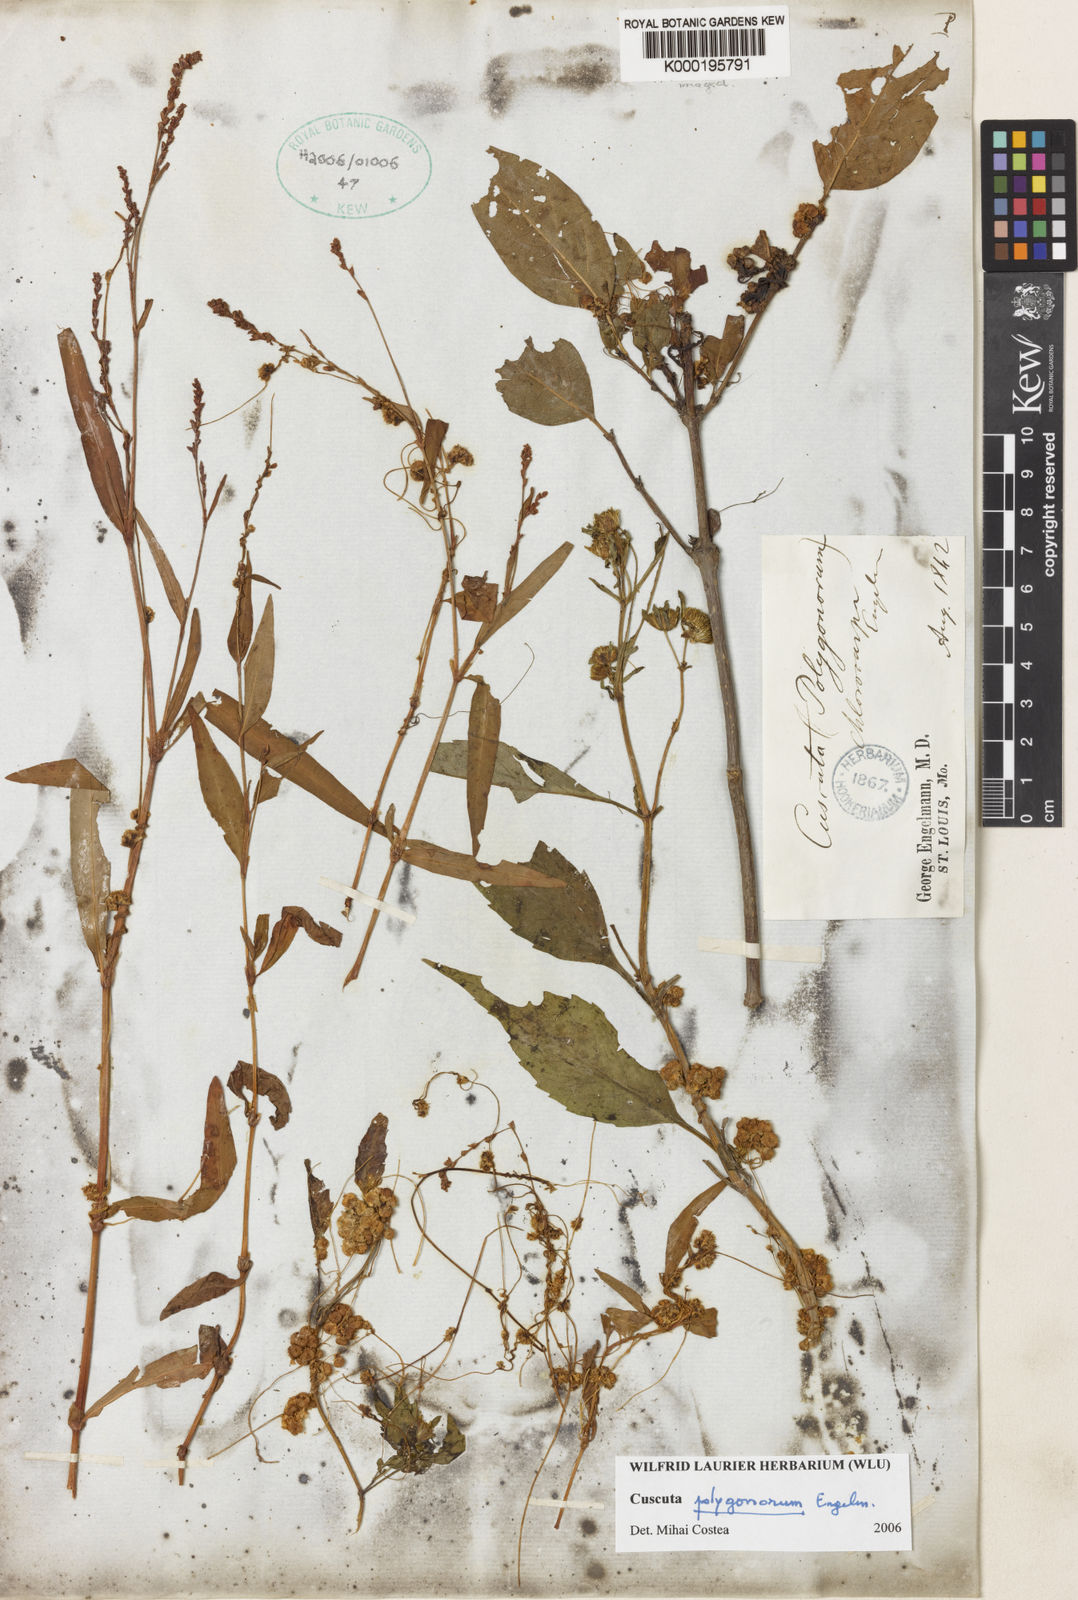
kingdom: Plantae
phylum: Tracheophyta
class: Magnoliopsida
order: Solanales
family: Convolvulaceae
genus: Cuscuta
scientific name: Cuscuta polygonorum
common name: Polygonum dodder
